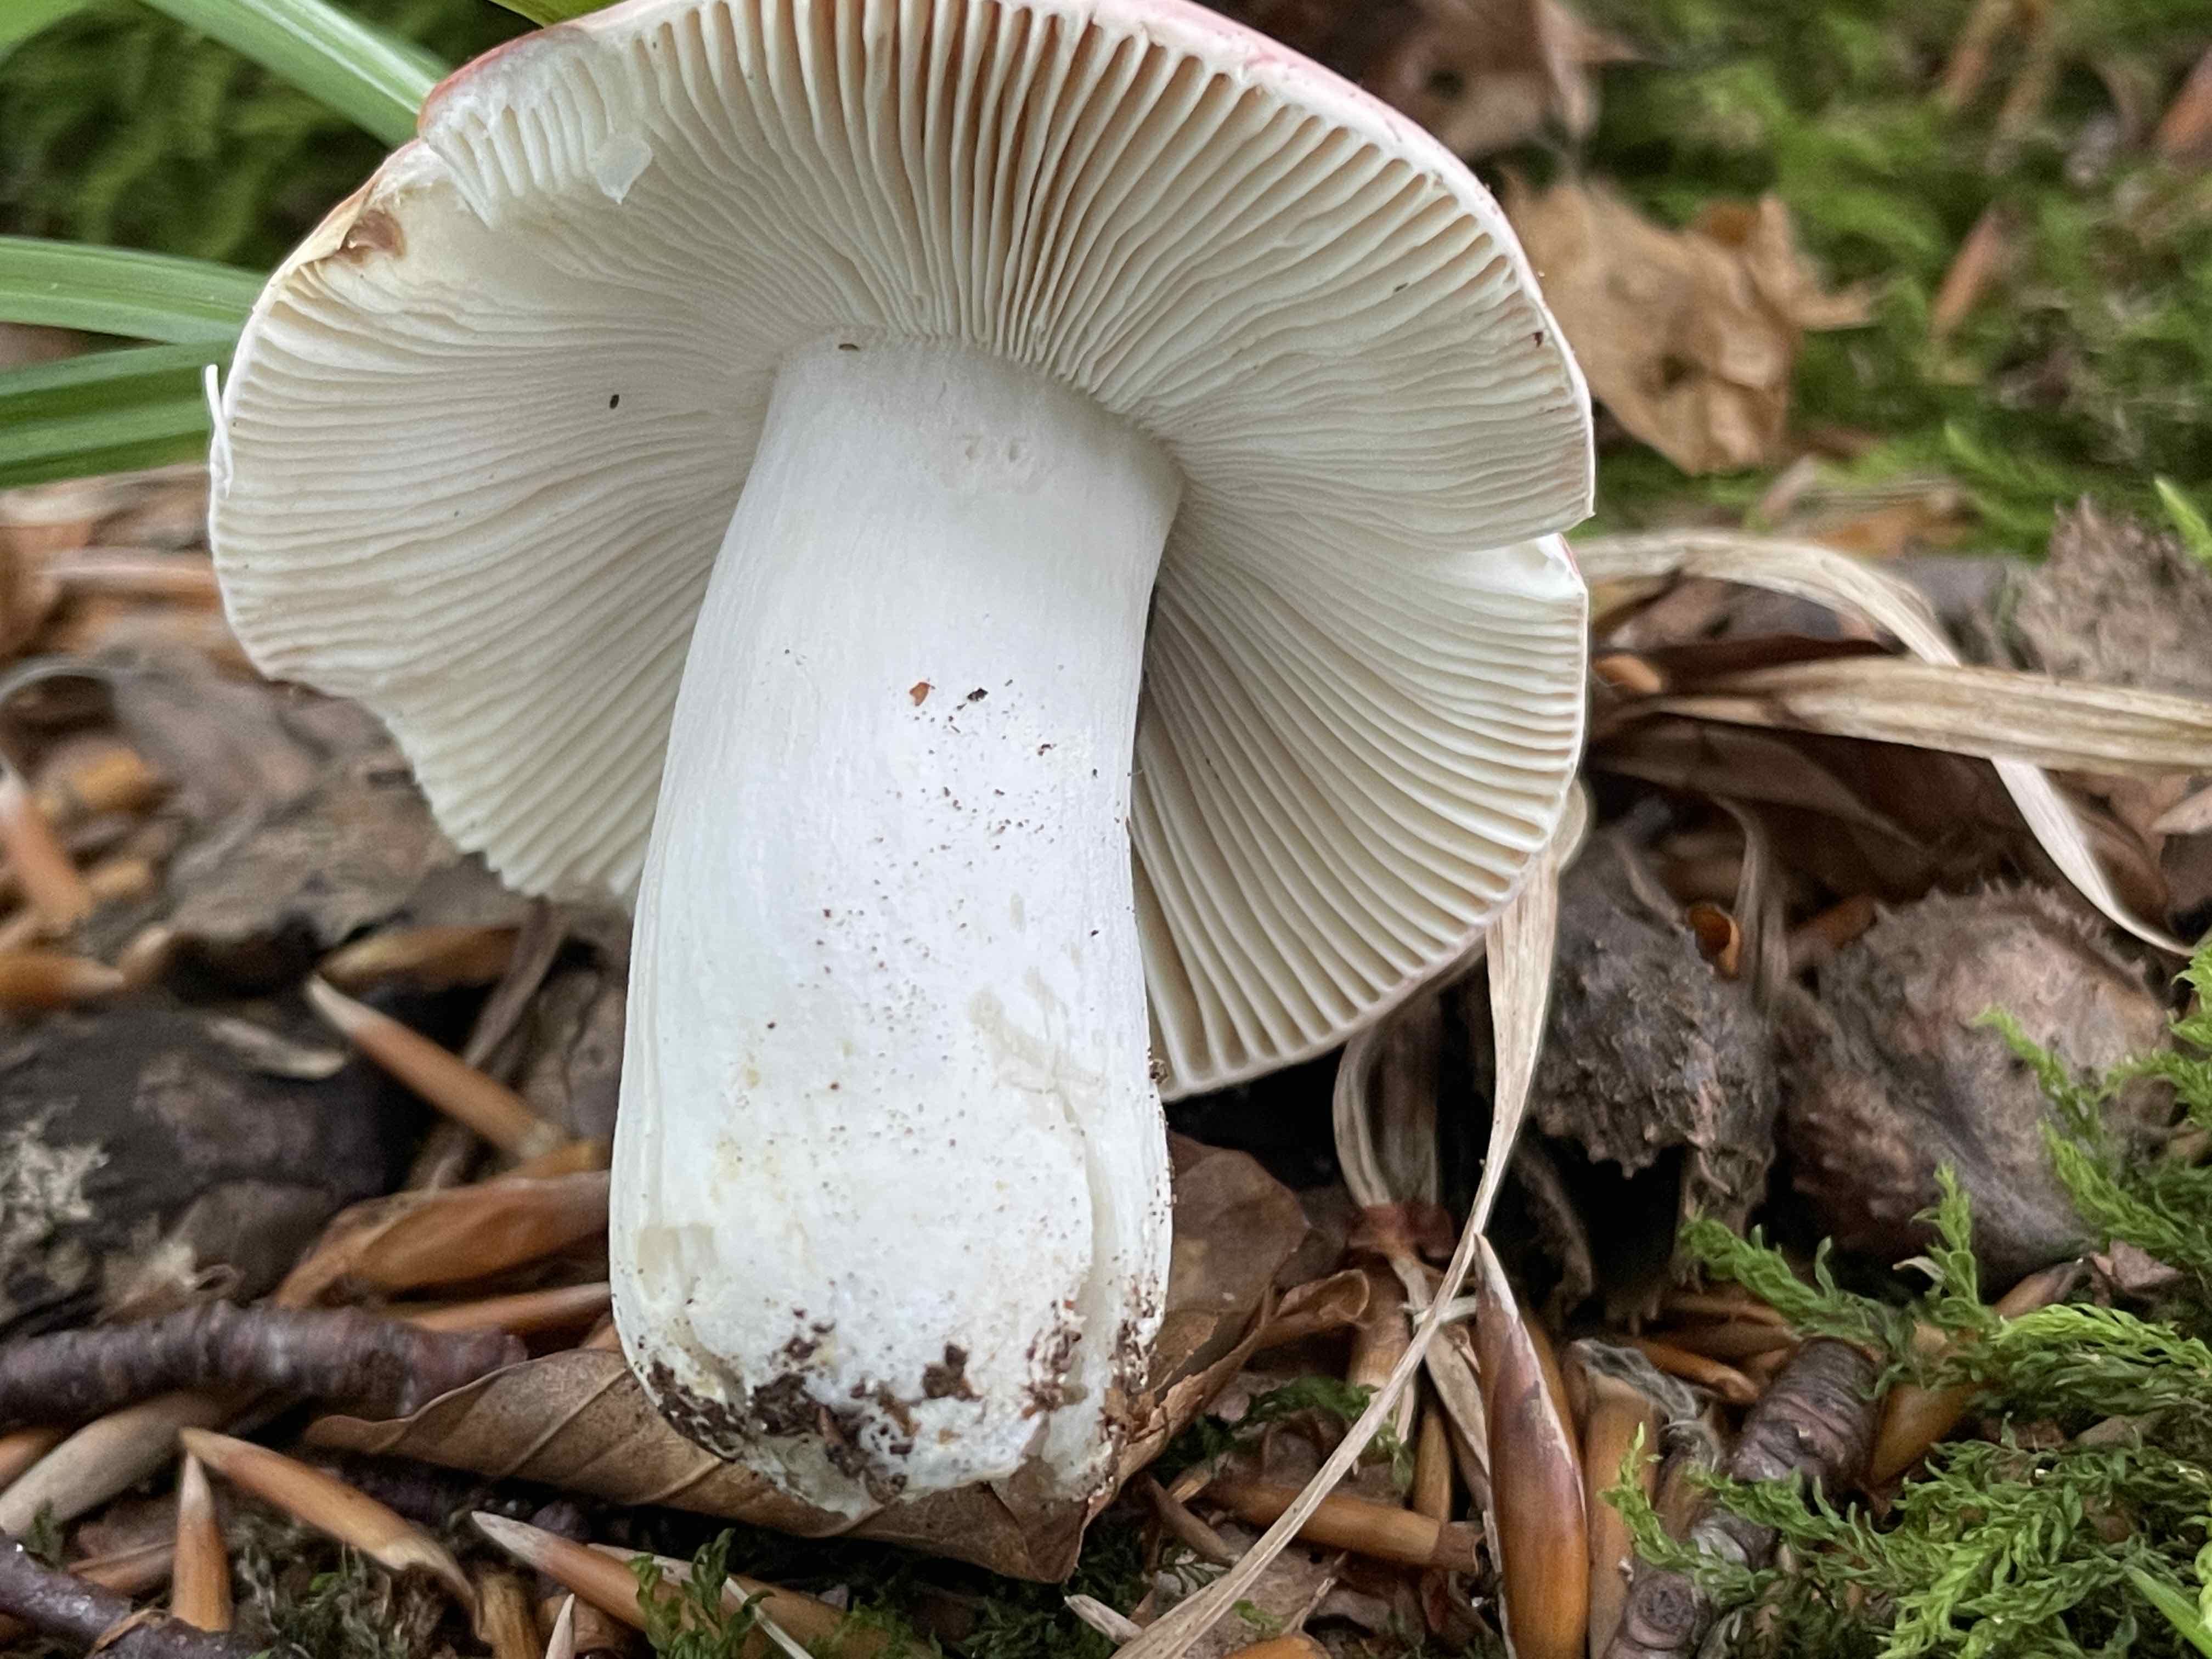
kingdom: Fungi
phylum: Basidiomycota
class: Agaricomycetes
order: Russulales
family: Russulaceae
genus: Russula
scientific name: Russula rosea
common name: fastkødet skørhat
